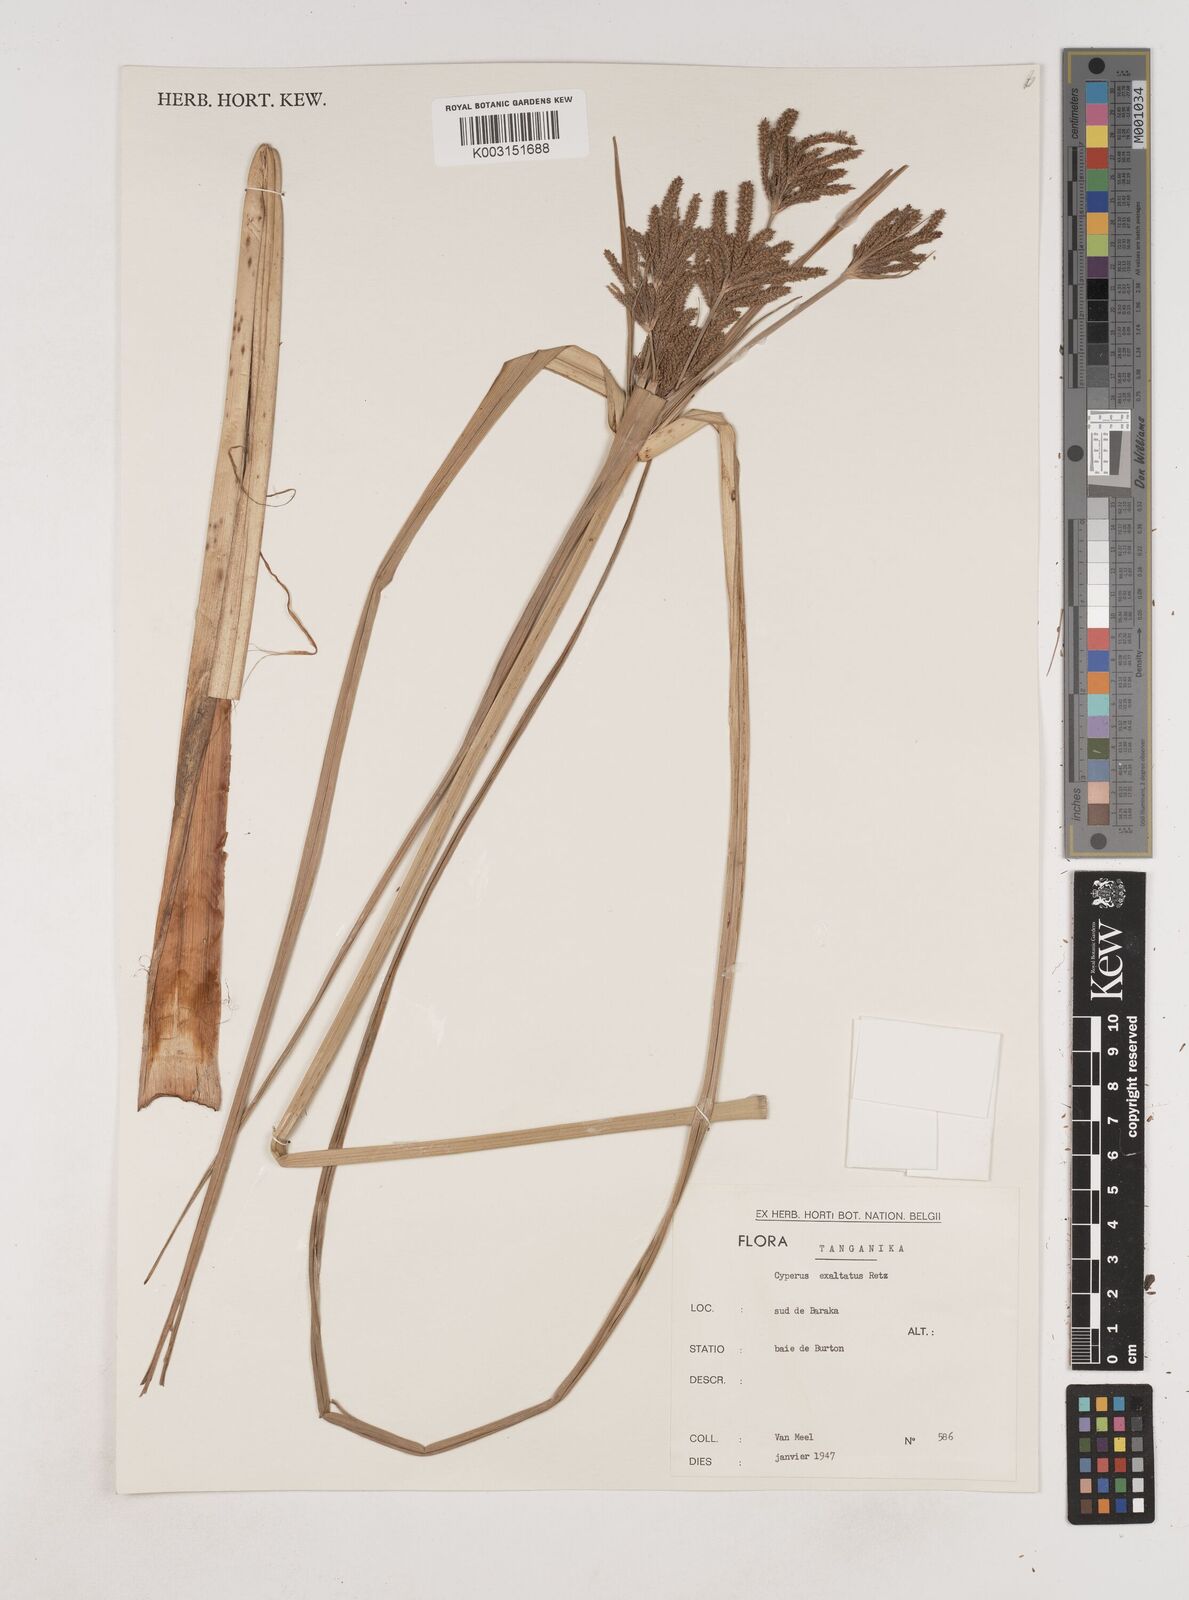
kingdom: Plantae
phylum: Tracheophyta
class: Liliopsida
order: Poales
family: Cyperaceae
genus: Cyperus
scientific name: Cyperus exaltatus
